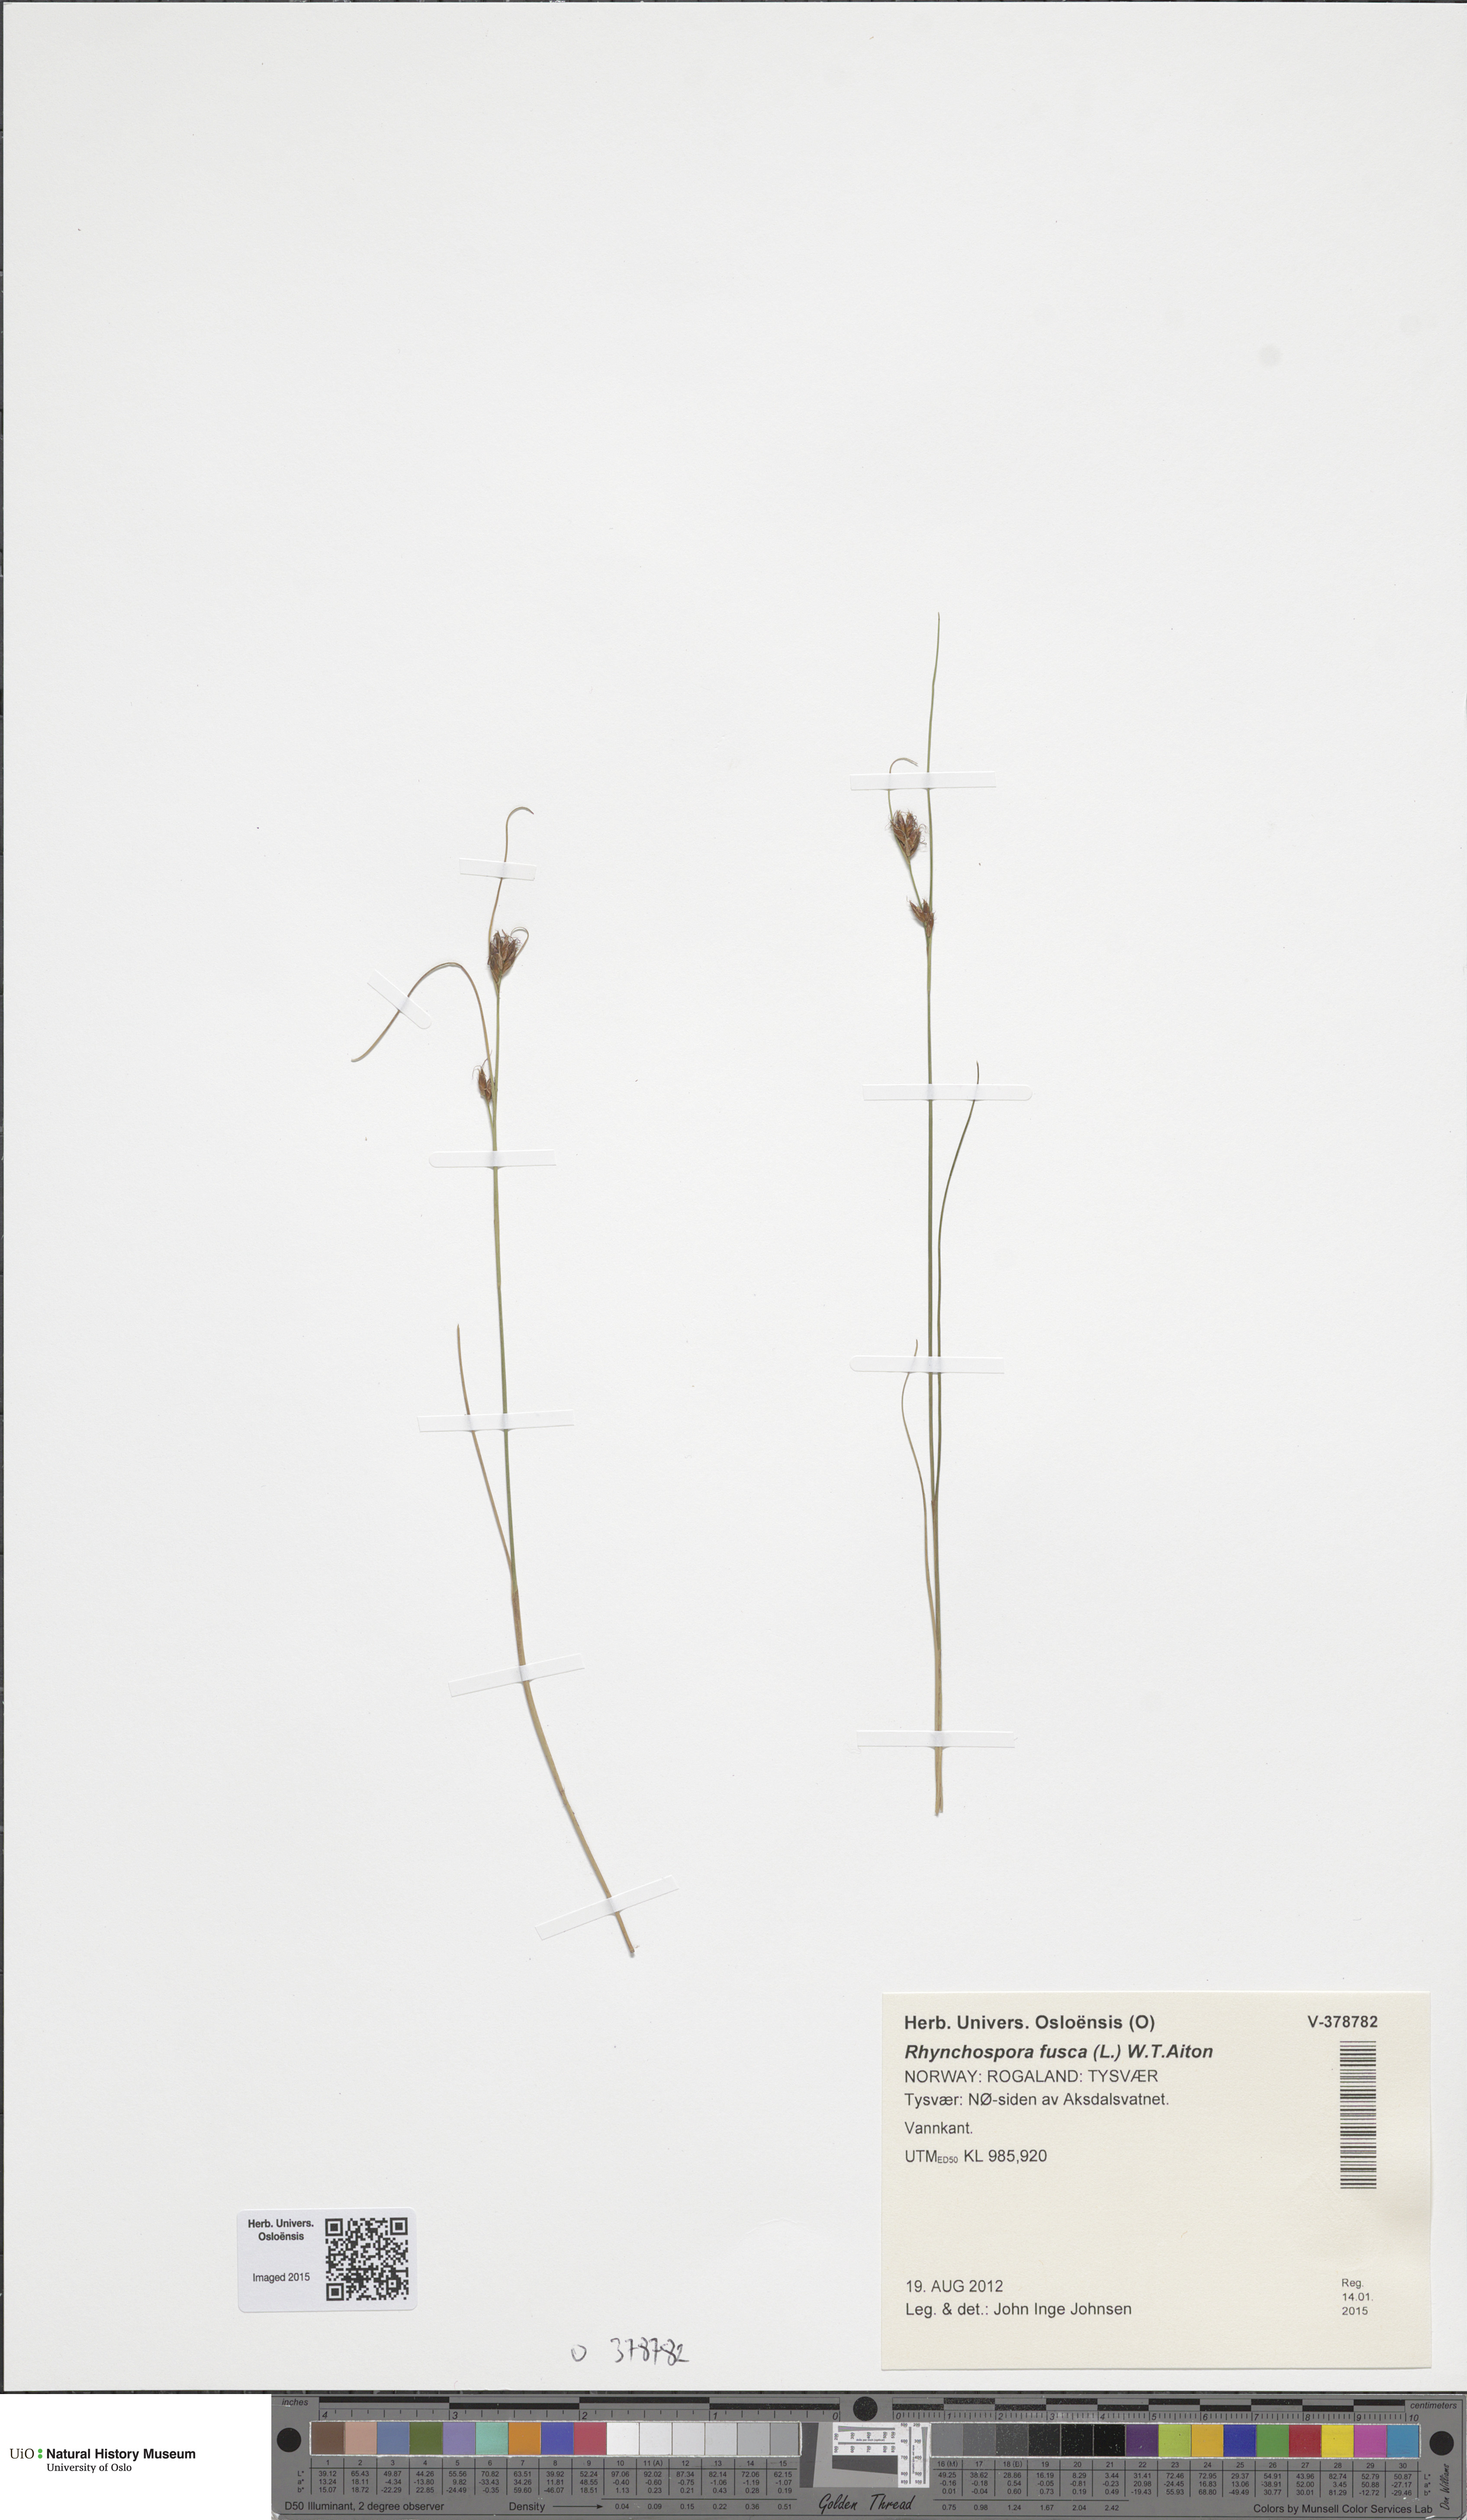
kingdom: Plantae
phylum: Tracheophyta
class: Liliopsida
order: Poales
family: Cyperaceae
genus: Rhynchospora
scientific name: Rhynchospora fusca
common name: Brown beak-sedge
